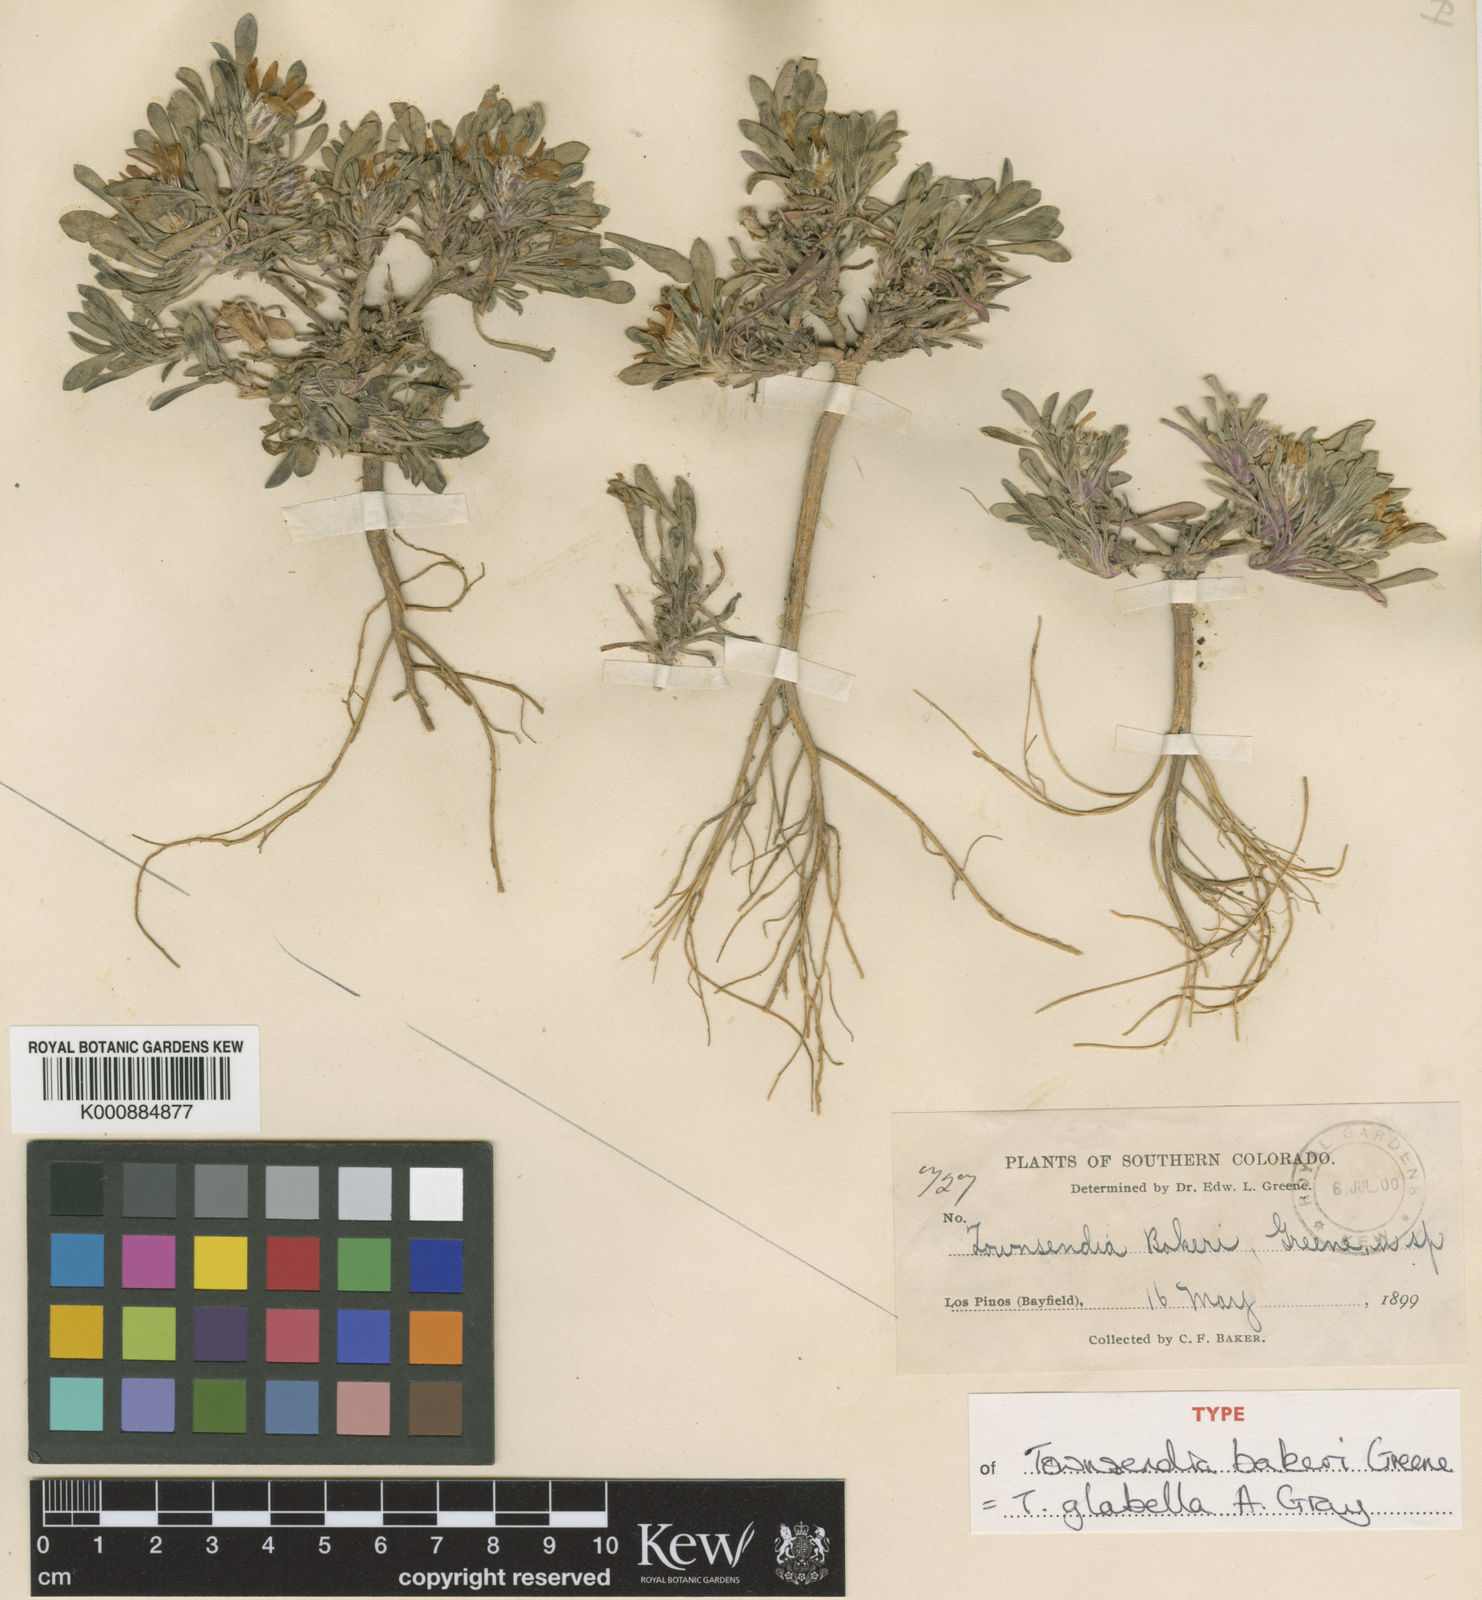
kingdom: Plantae
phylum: Tracheophyta
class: Magnoliopsida
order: Asterales
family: Asteraceae
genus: Townsendia
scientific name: Townsendia
